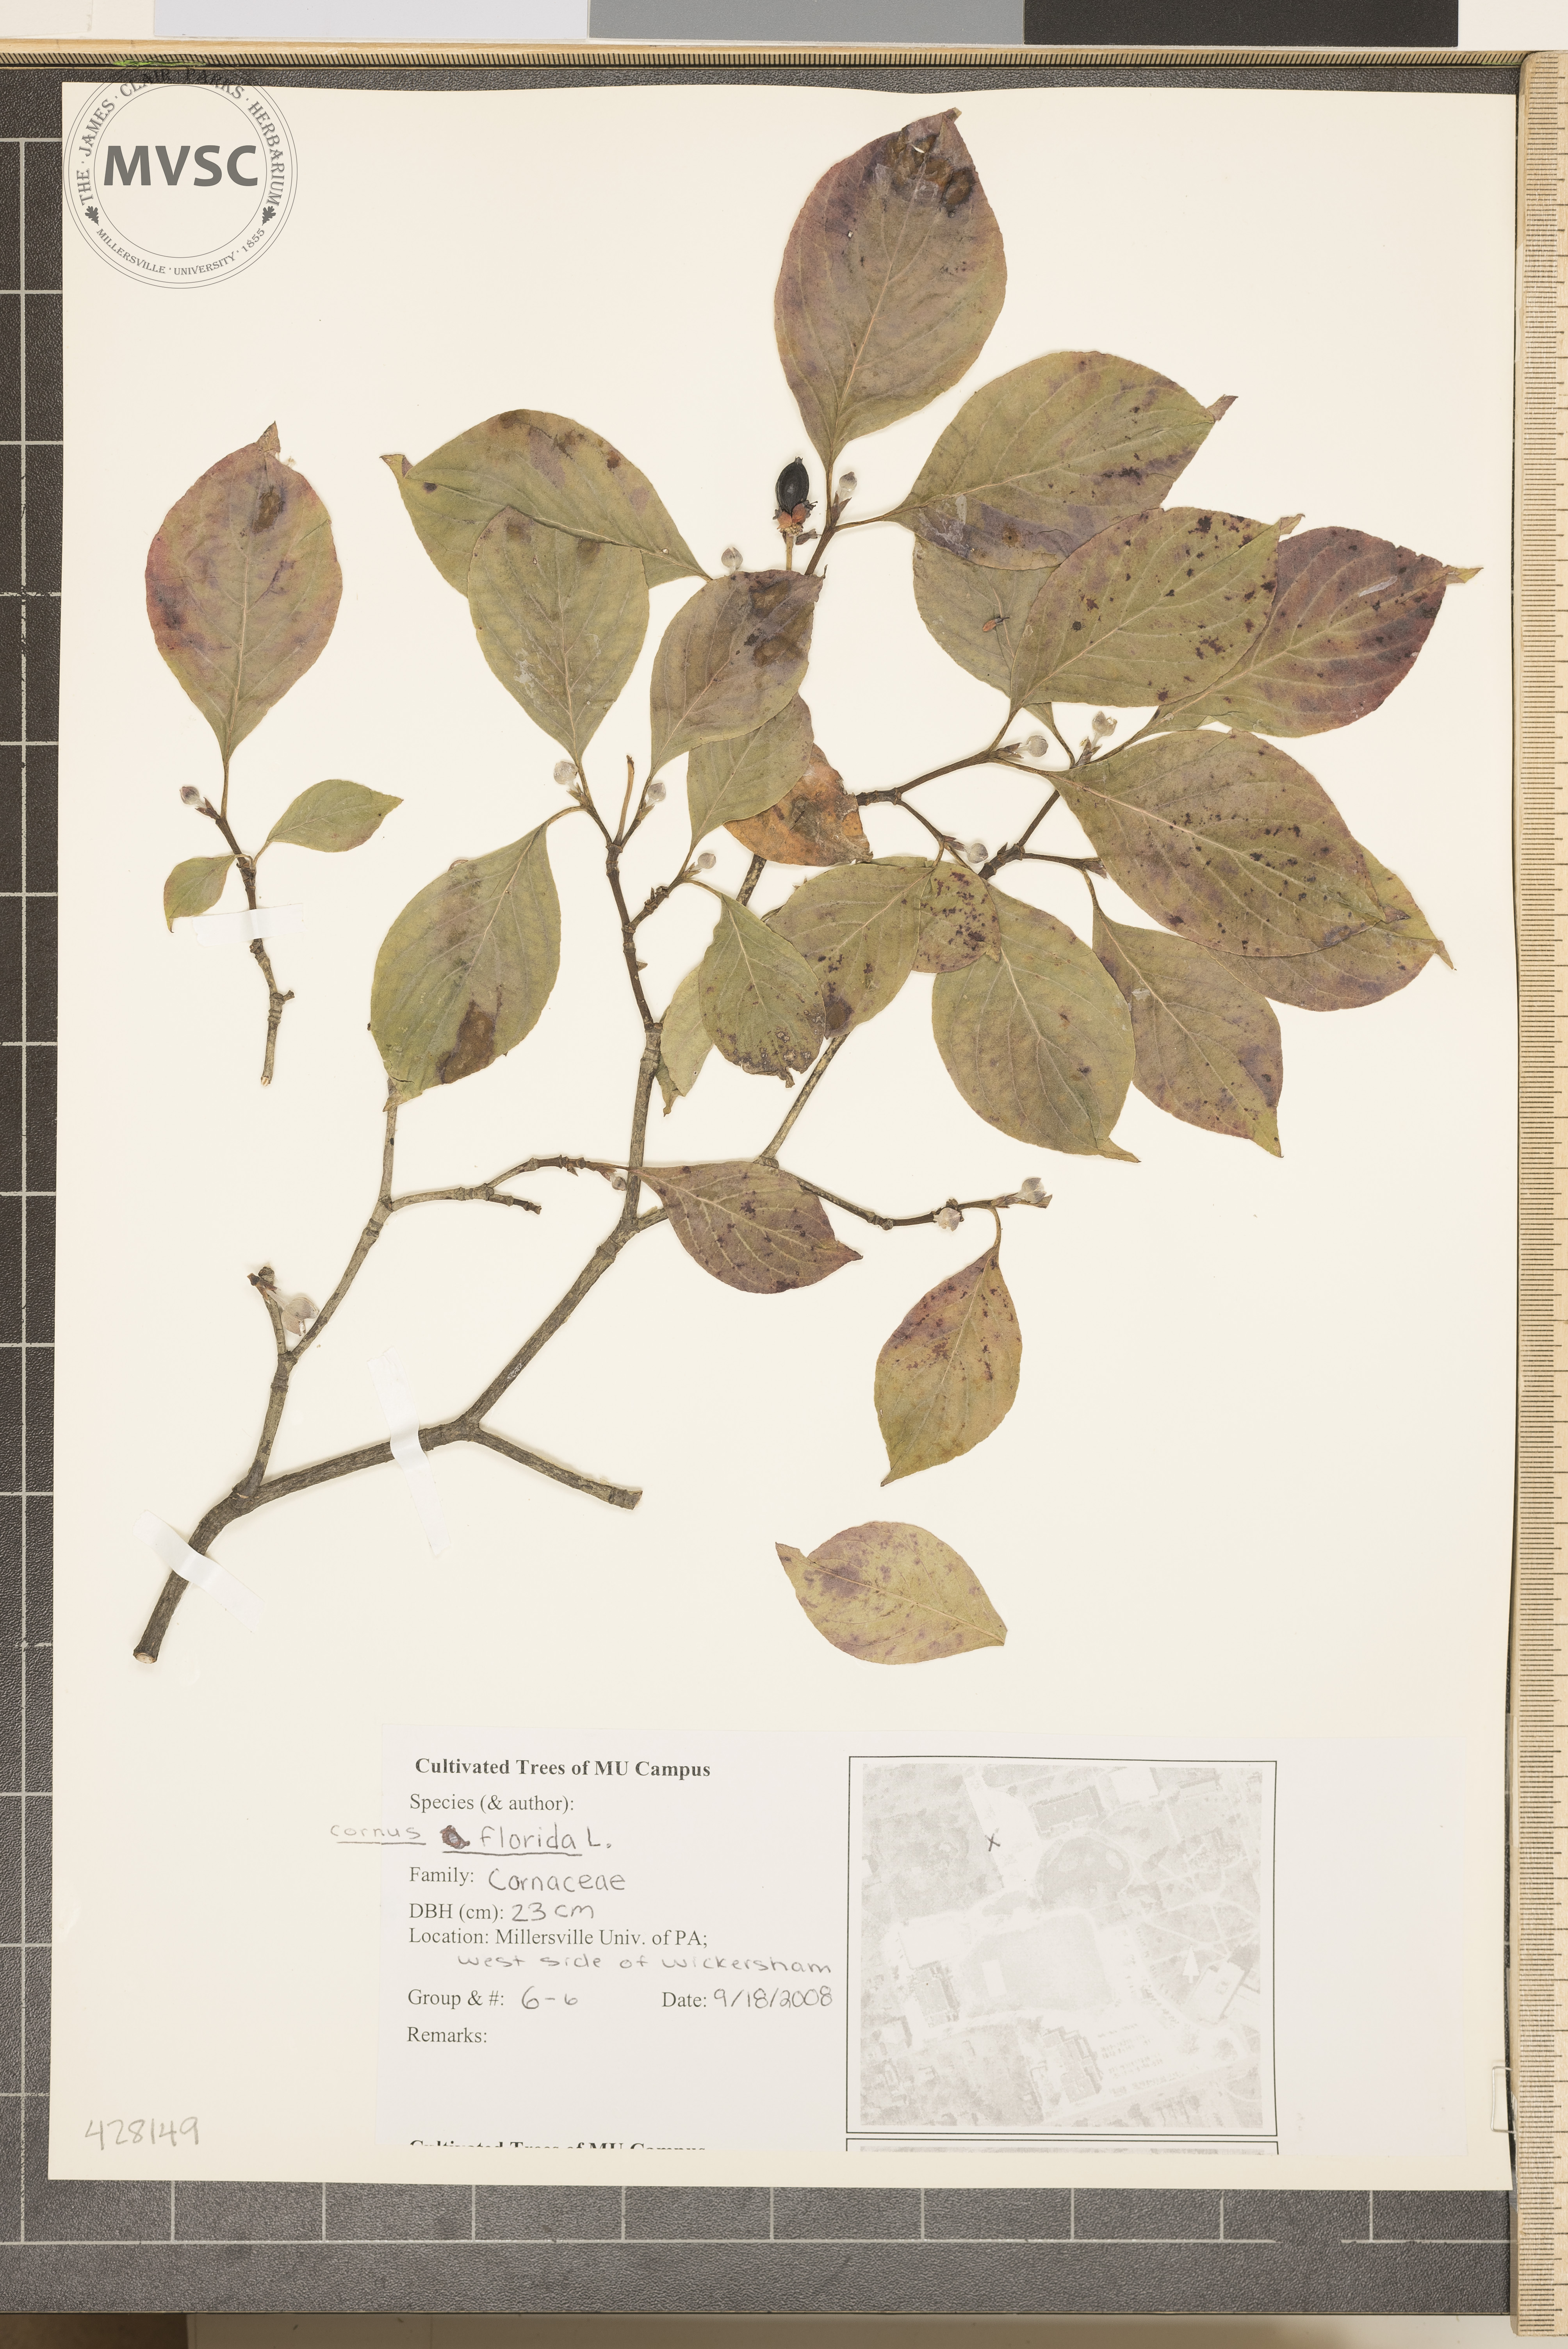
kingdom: Plantae
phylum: Tracheophyta
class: Magnoliopsida
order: Cornales
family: Cornaceae
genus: Cornus
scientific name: Cornus florida
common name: Flowering Dogwood
